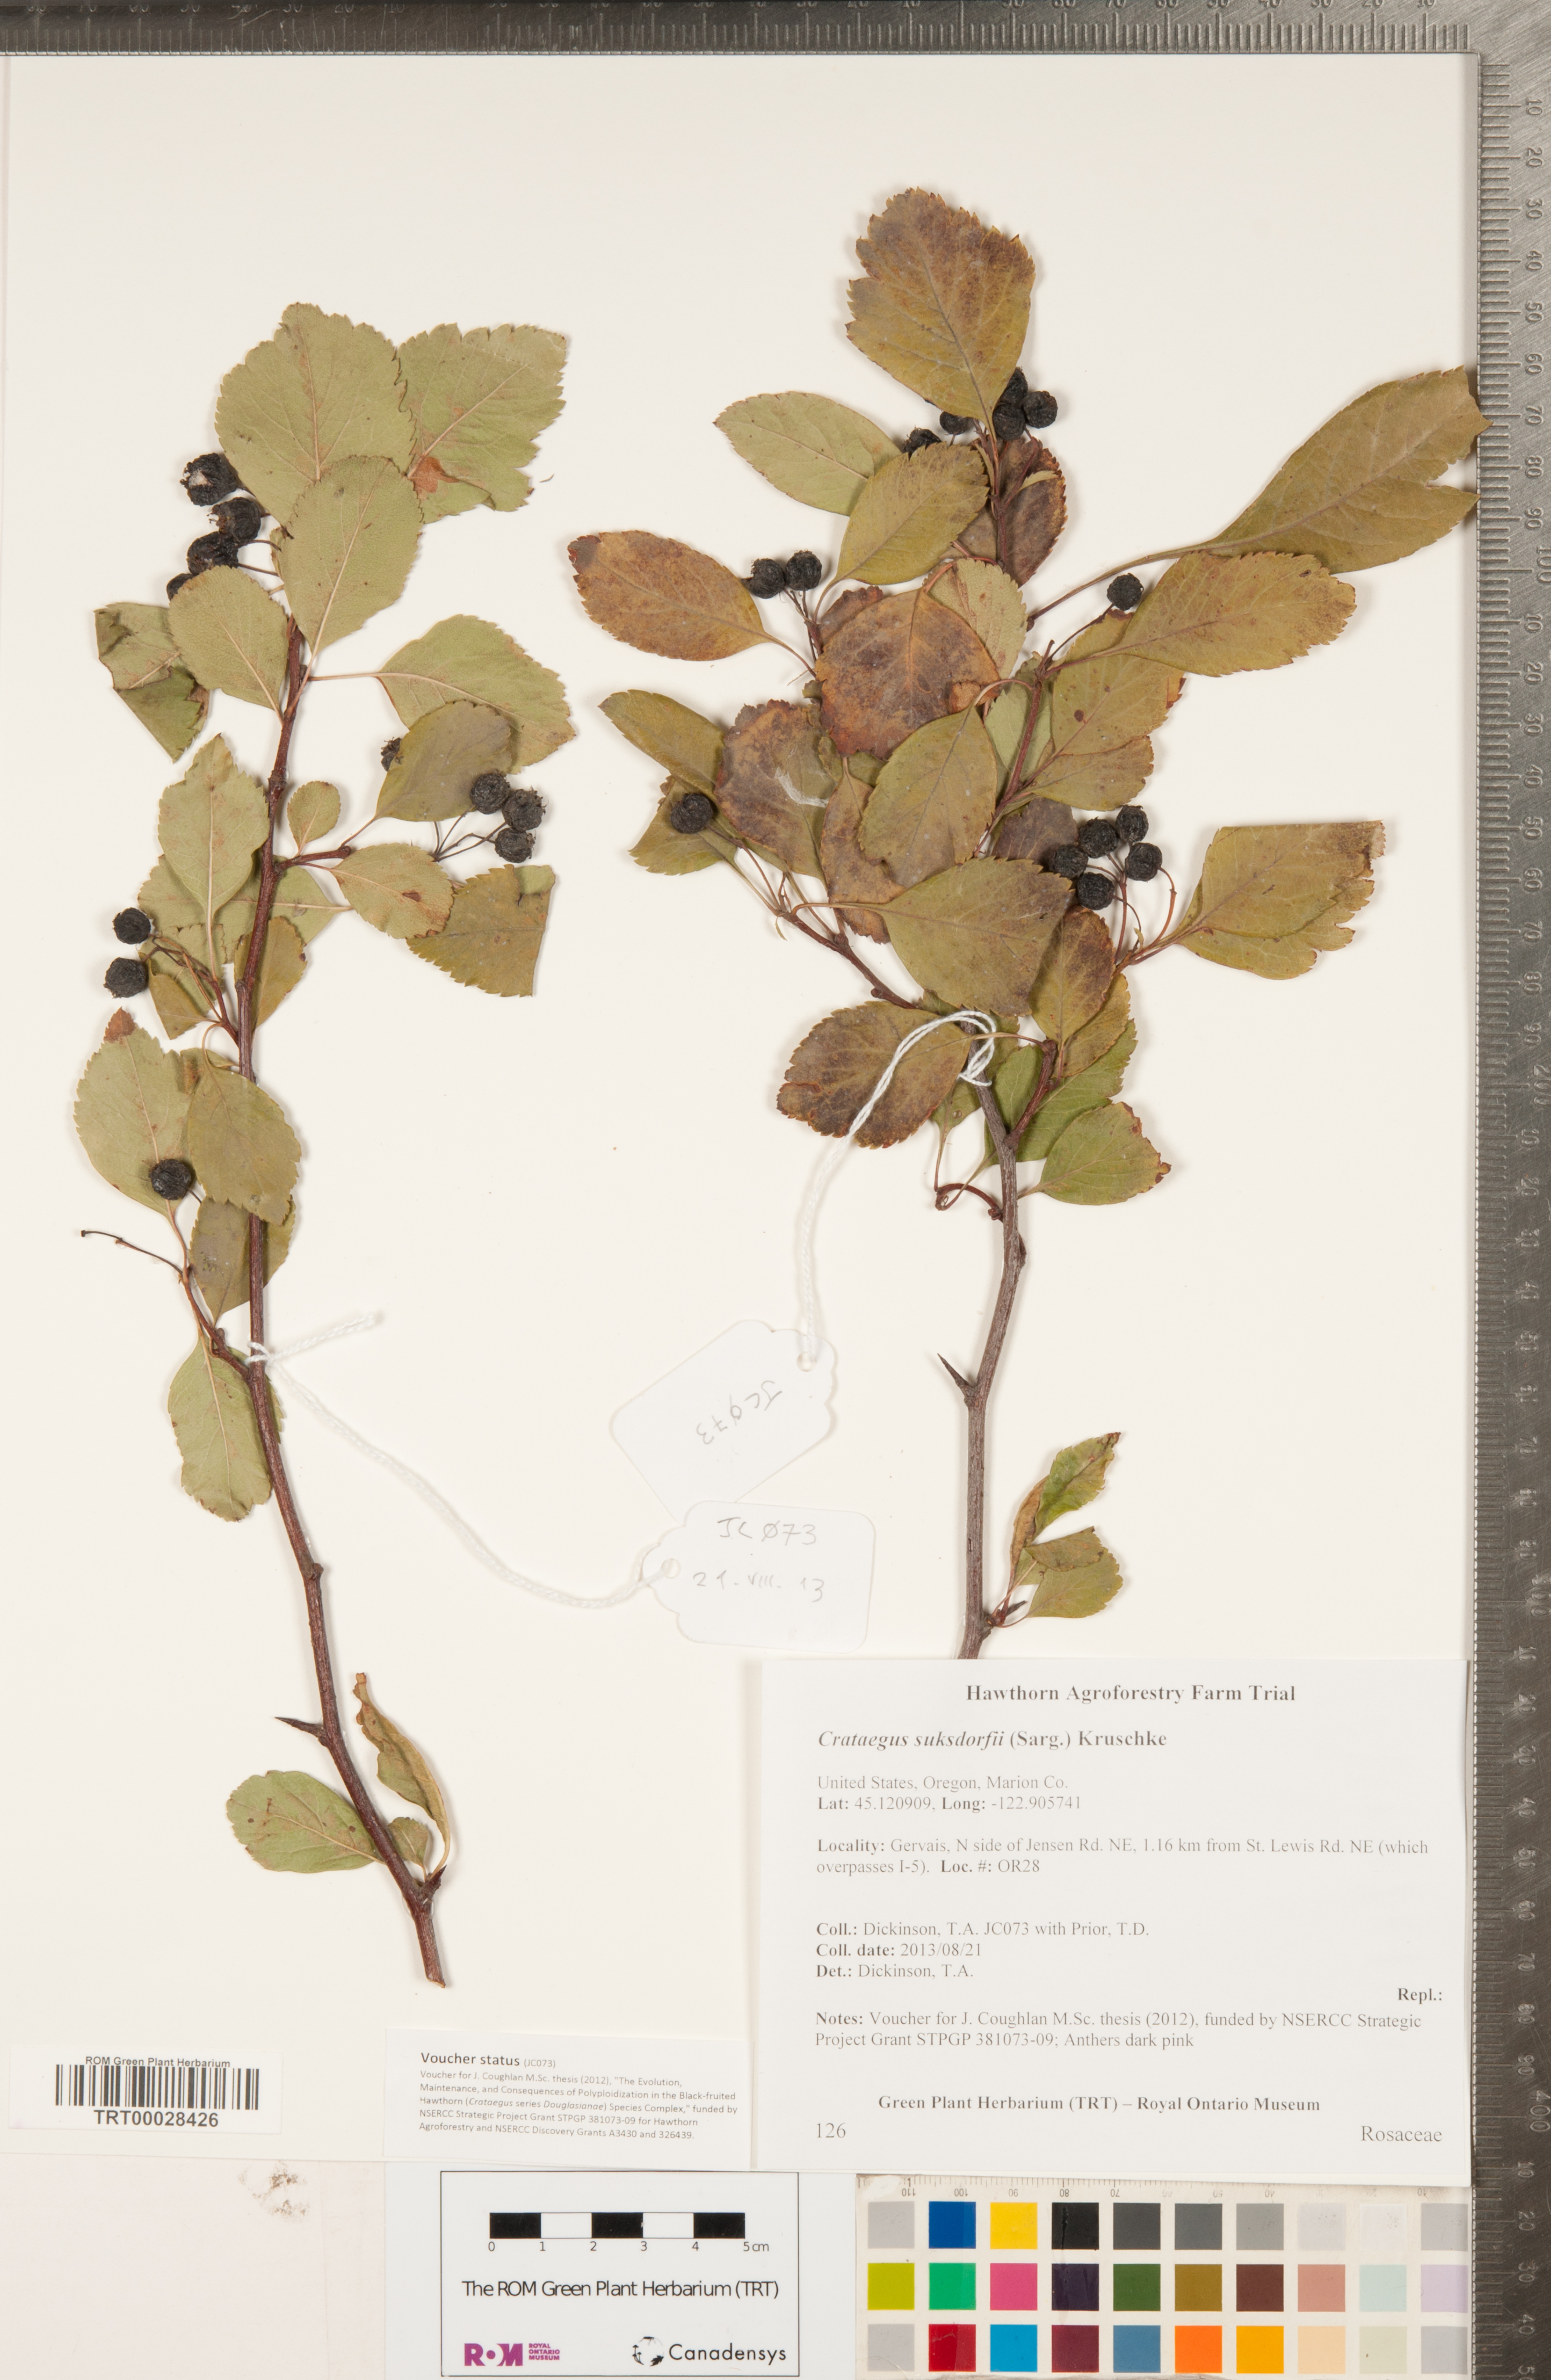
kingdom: Plantae
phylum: Tracheophyta
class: Magnoliopsida
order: Rosales
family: Rosaceae
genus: Crataegus
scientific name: Crataegus gaylussacia
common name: Huckleberry hawthorn
